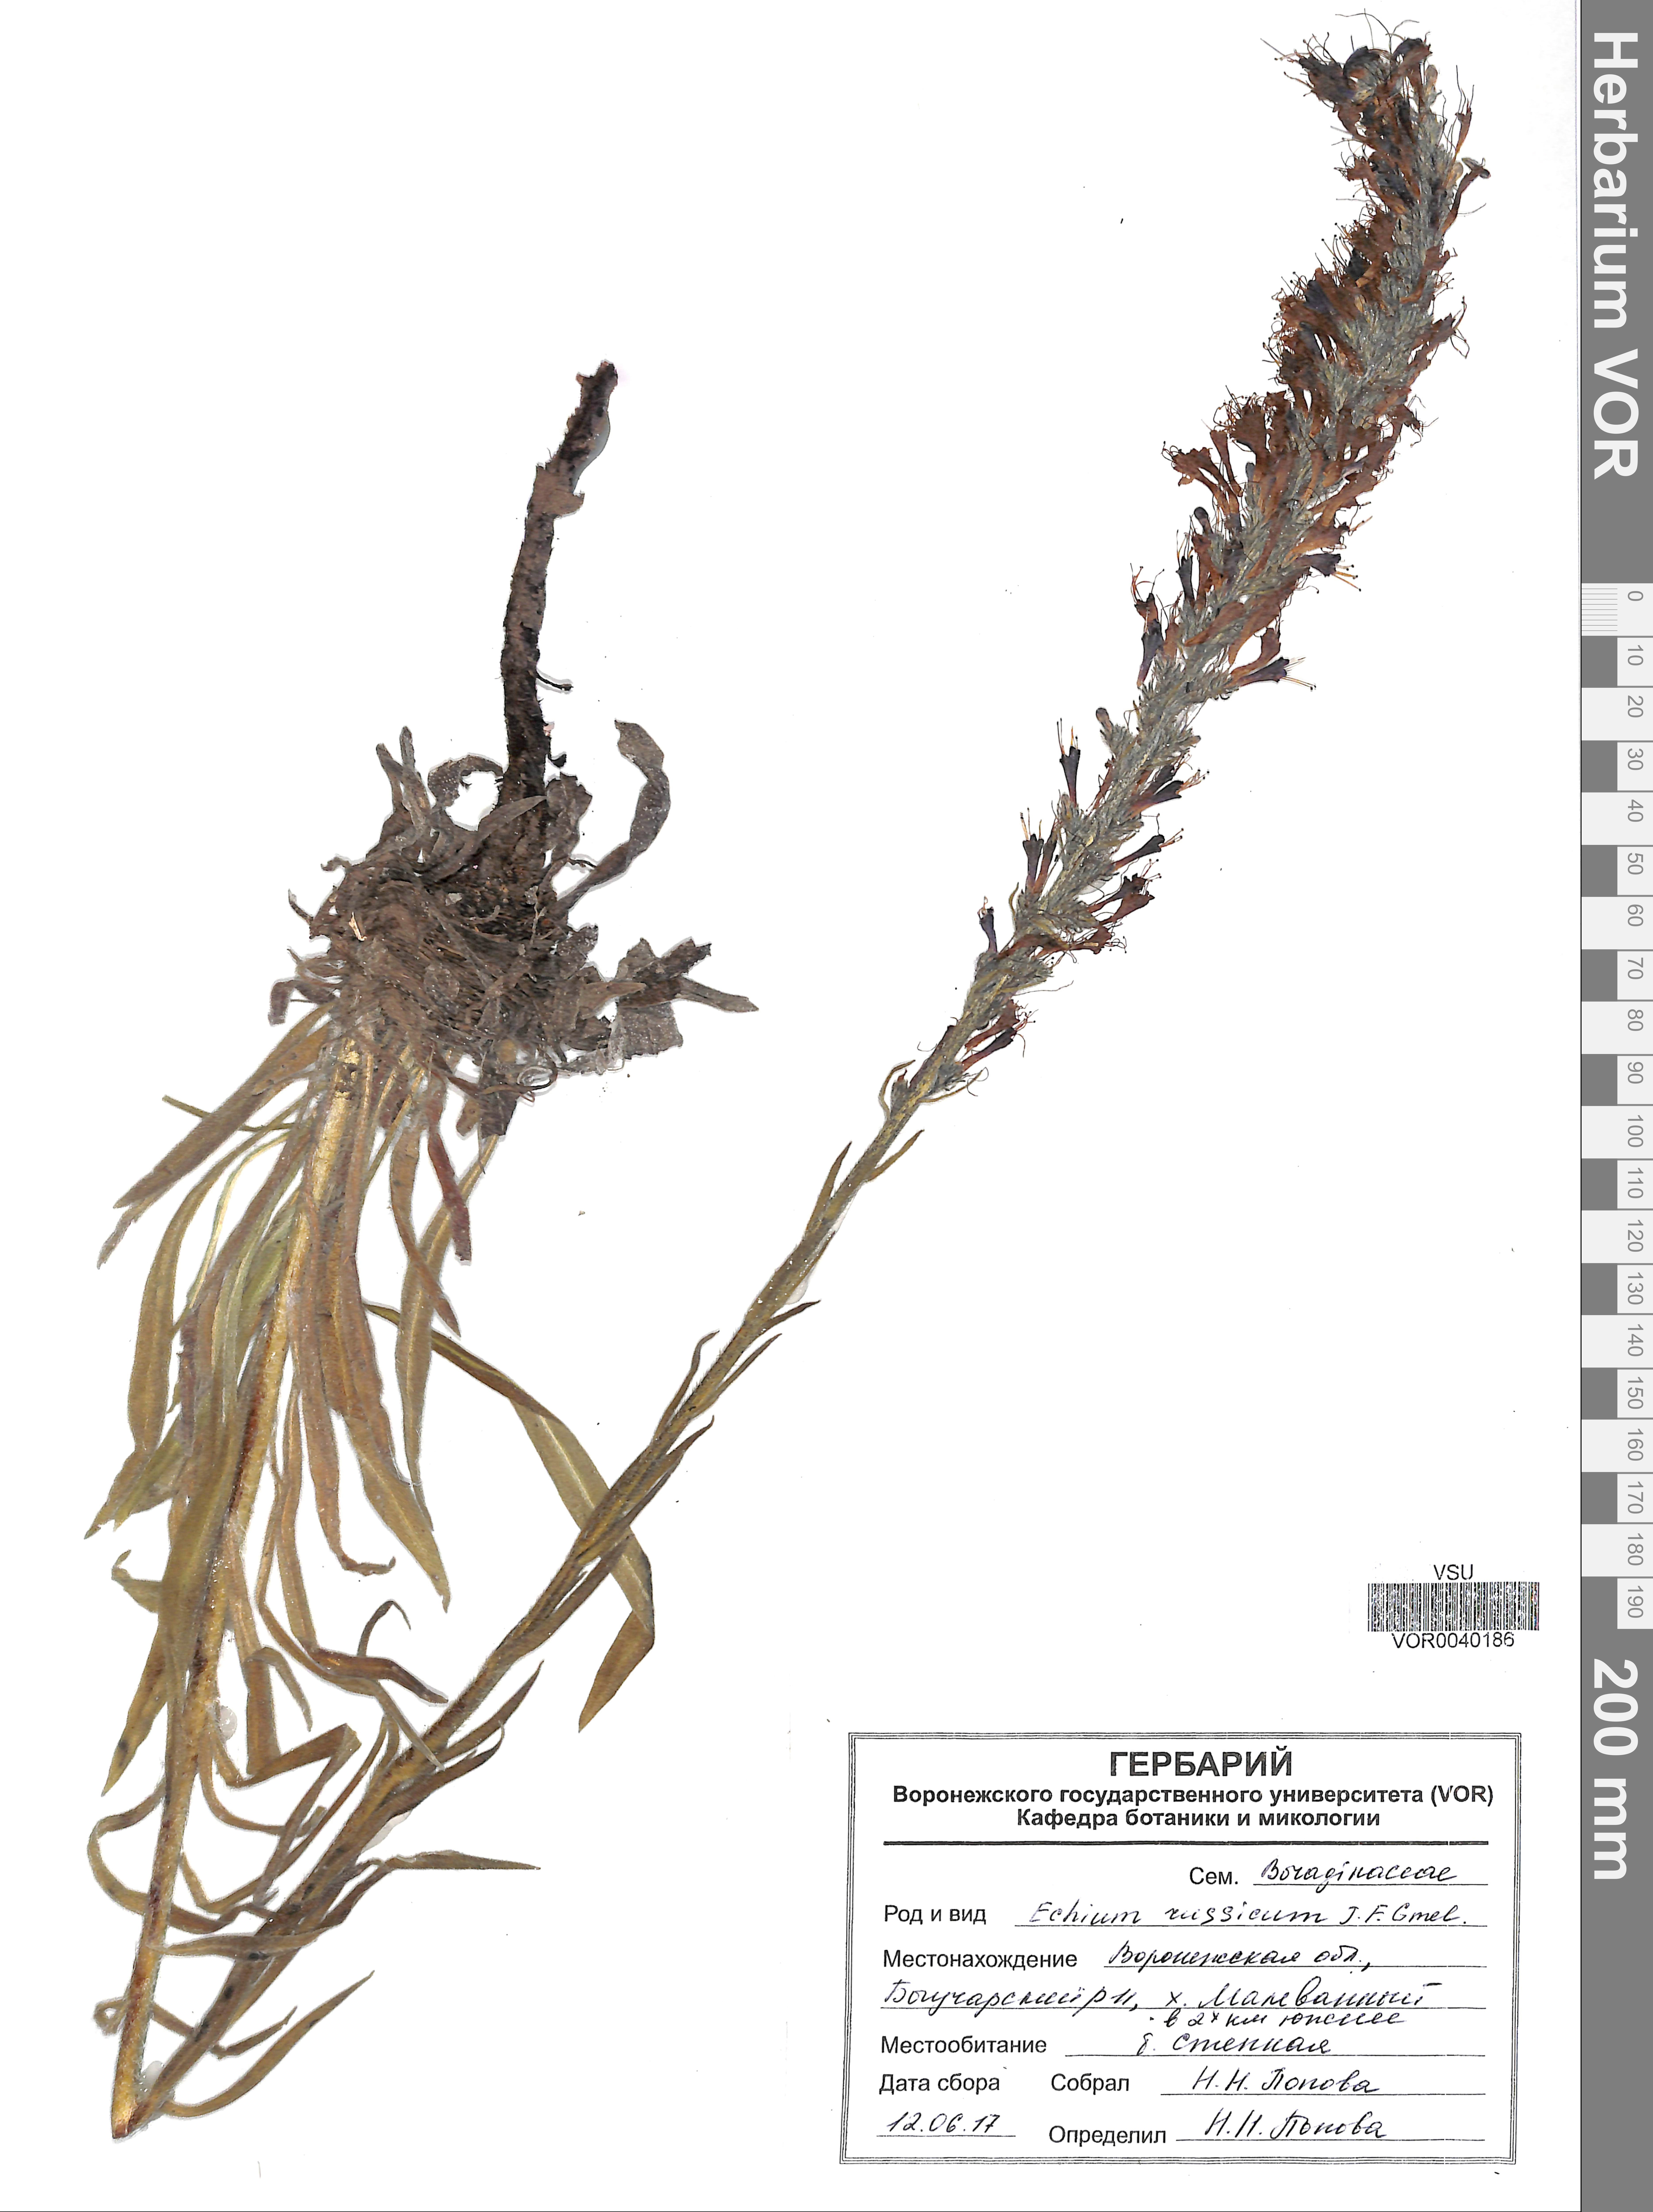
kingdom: Plantae
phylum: Tracheophyta
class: Magnoliopsida
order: Boraginales
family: Boraginaceae
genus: Pontechium
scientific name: Pontechium maculatum
